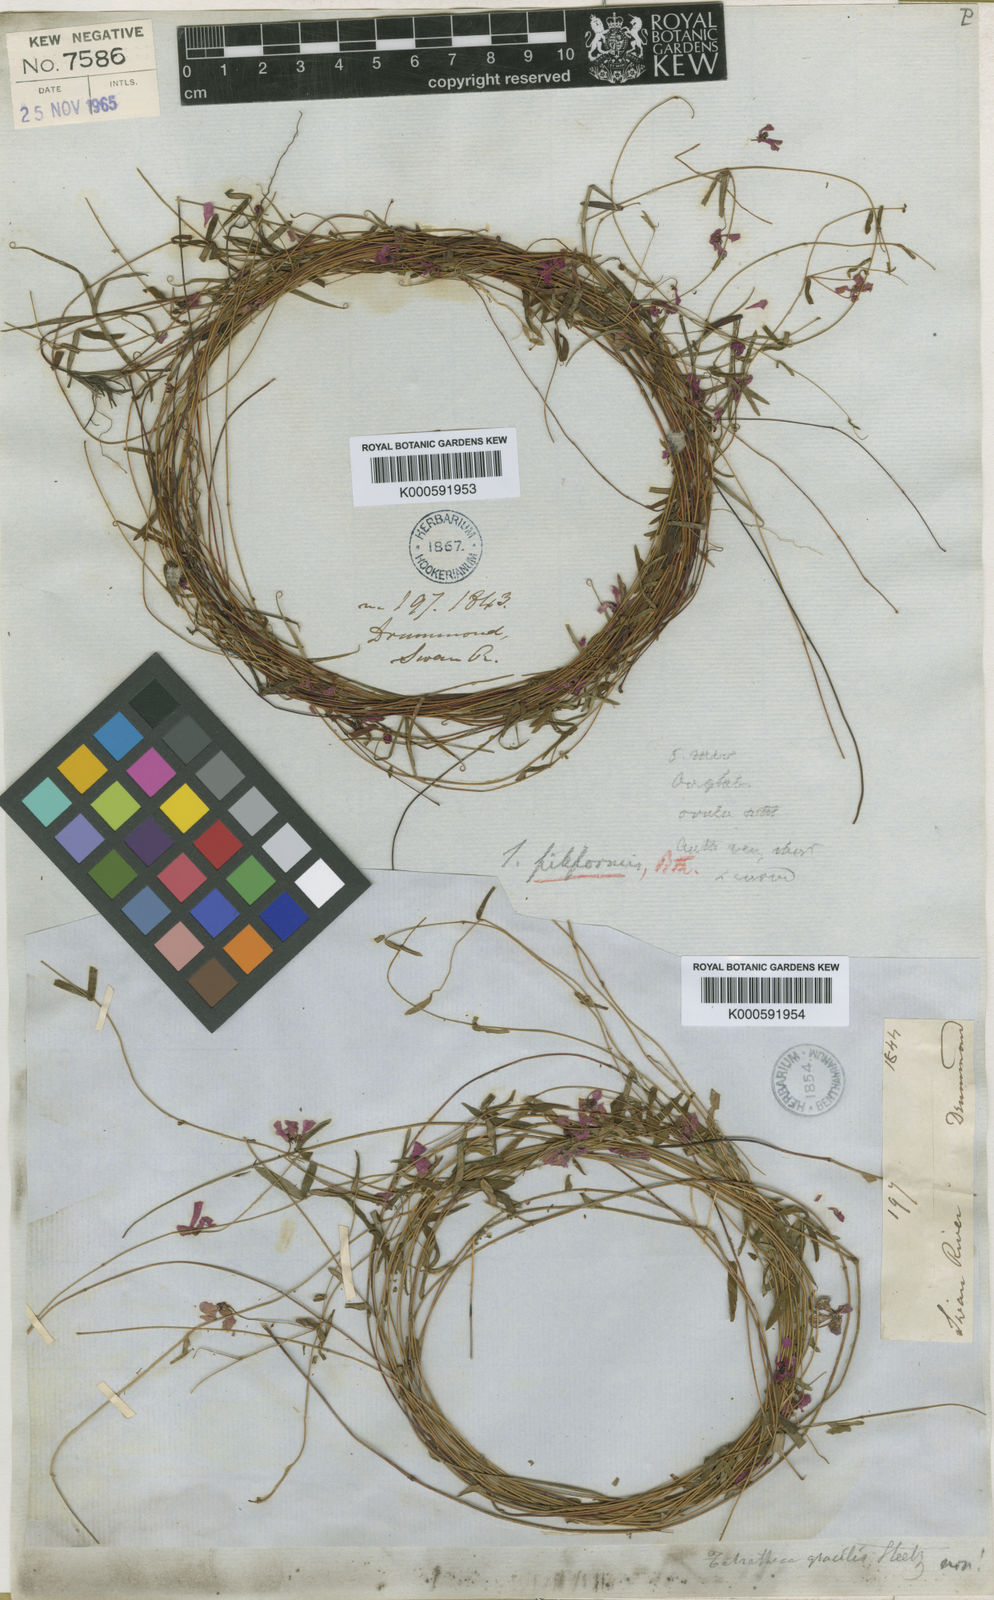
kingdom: Plantae
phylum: Tracheophyta
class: Magnoliopsida
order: Oxalidales
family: Elaeocarpaceae
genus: Tetratheca
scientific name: Tetratheca filiformis
